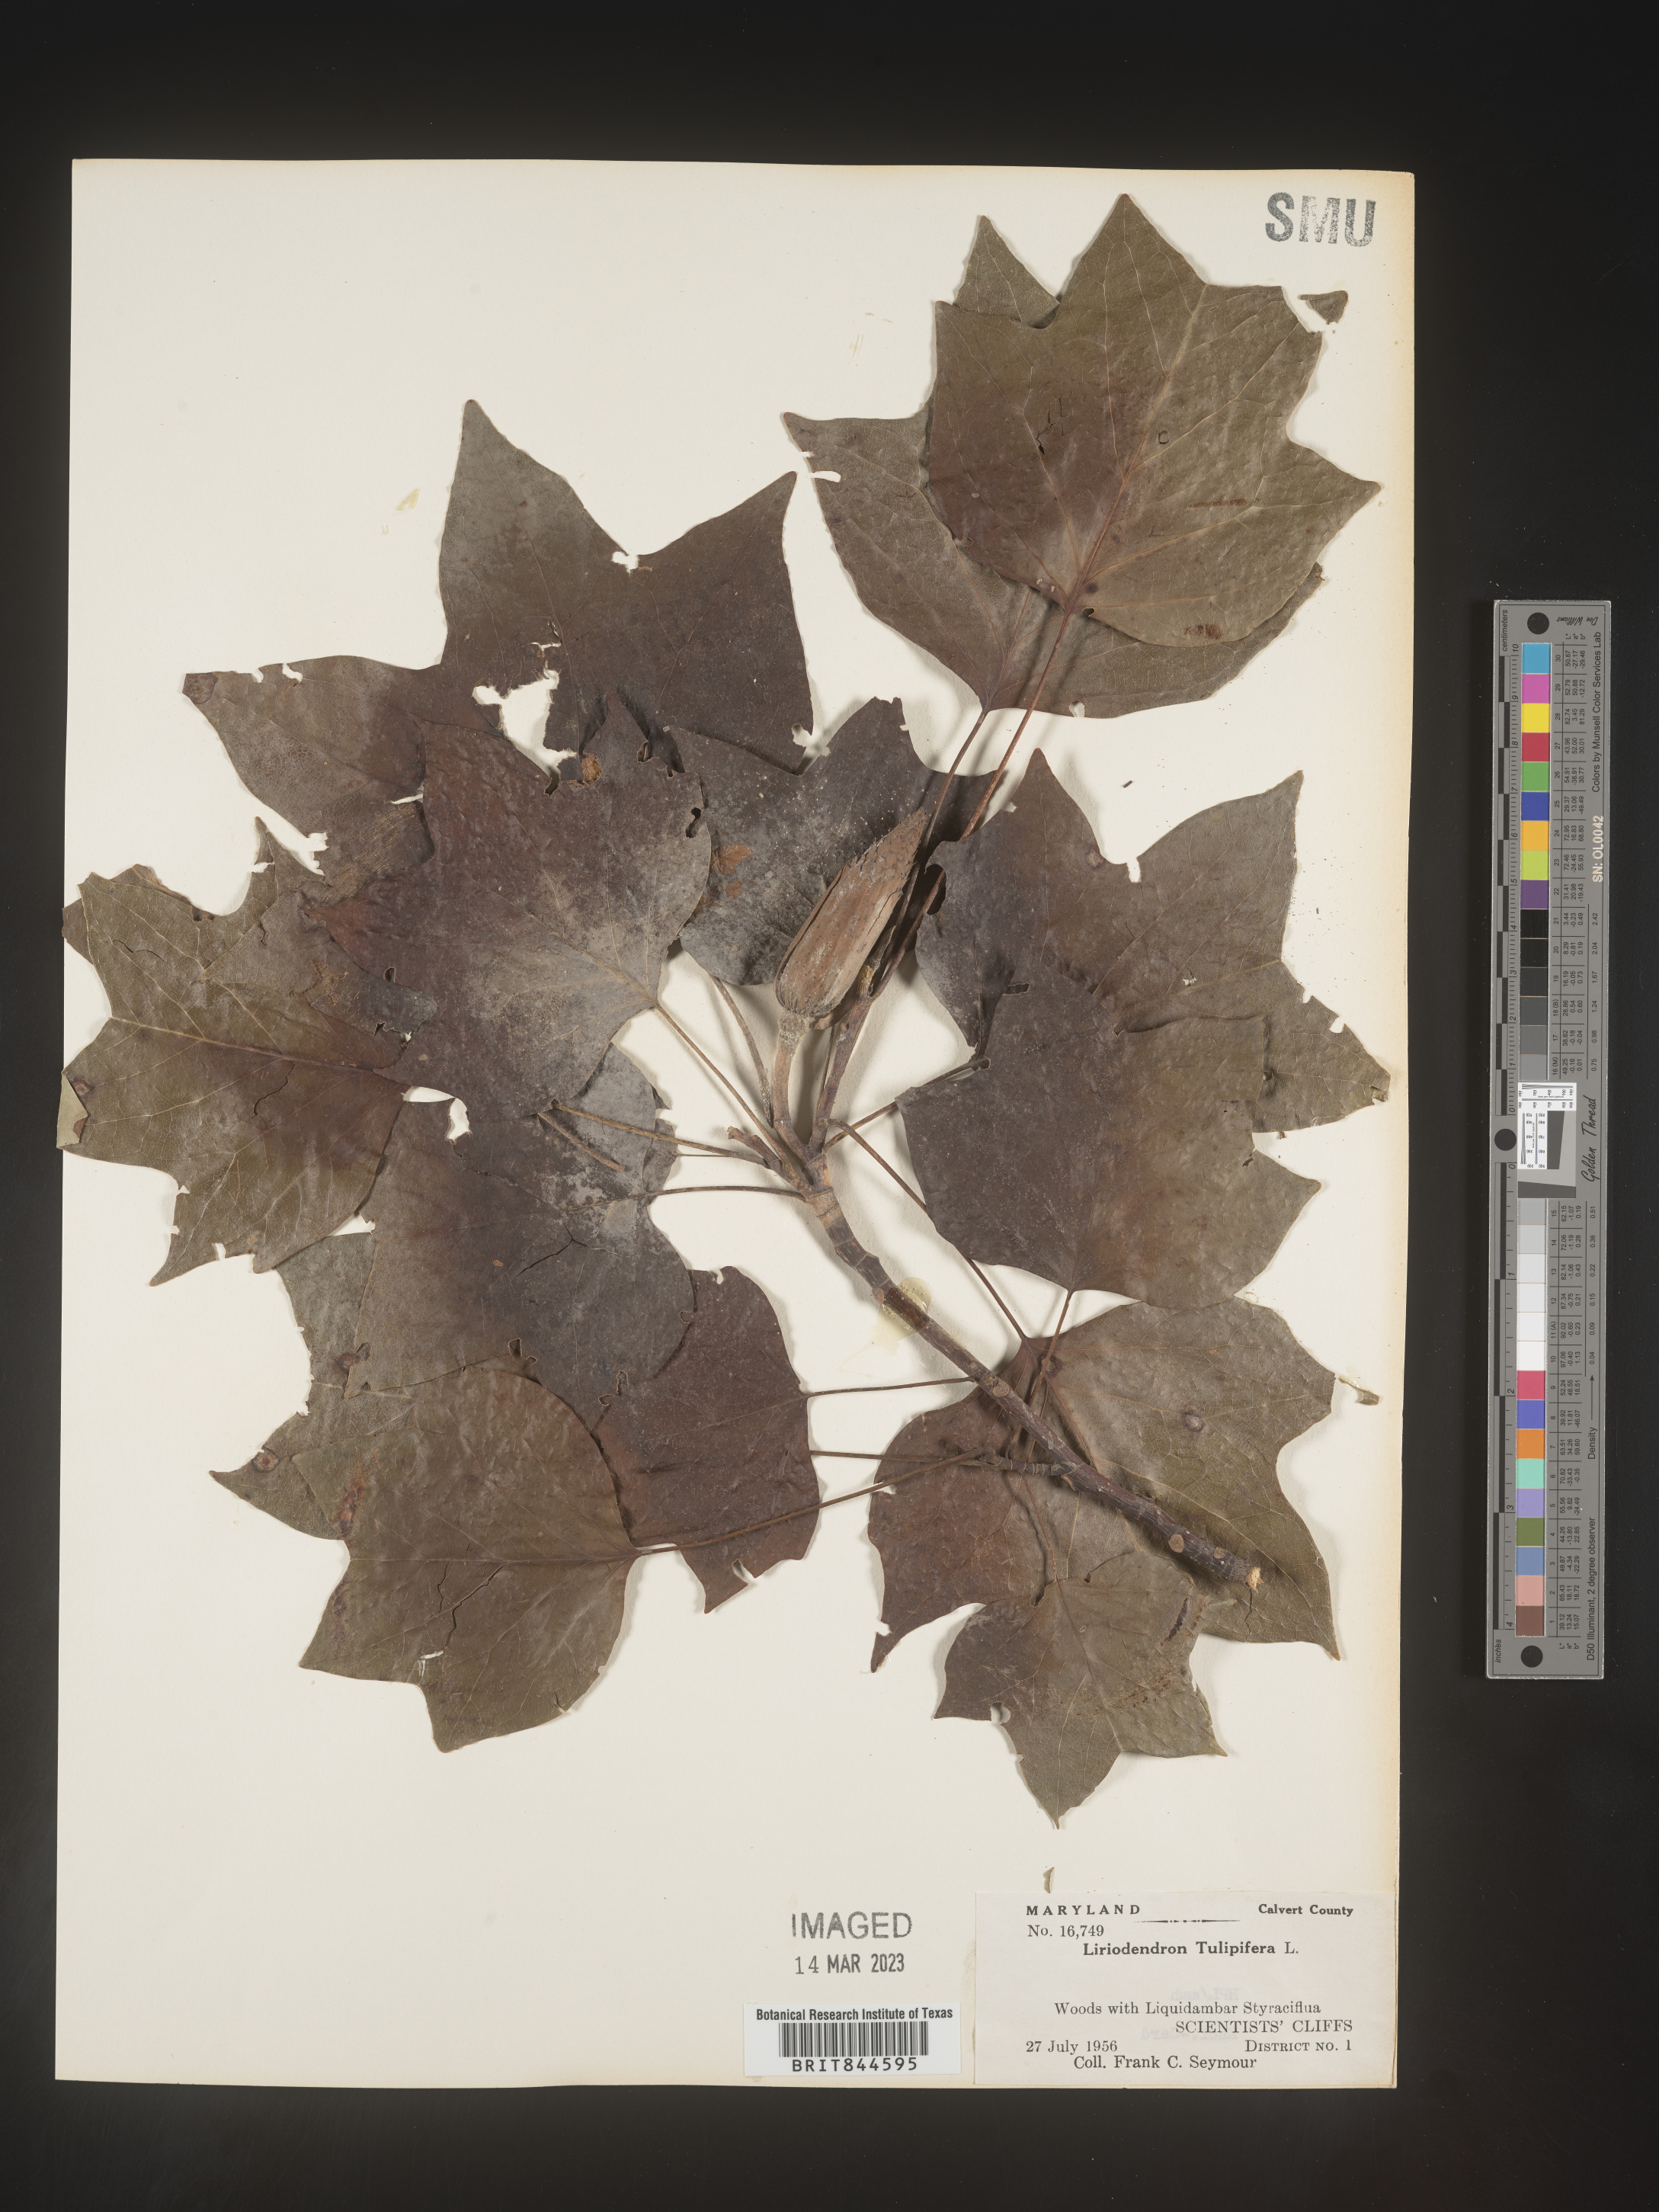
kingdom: Plantae
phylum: Tracheophyta
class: Magnoliopsida
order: Magnoliales
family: Magnoliaceae
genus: Liriodendron
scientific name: Liriodendron tulipifera
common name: Tulip tree
